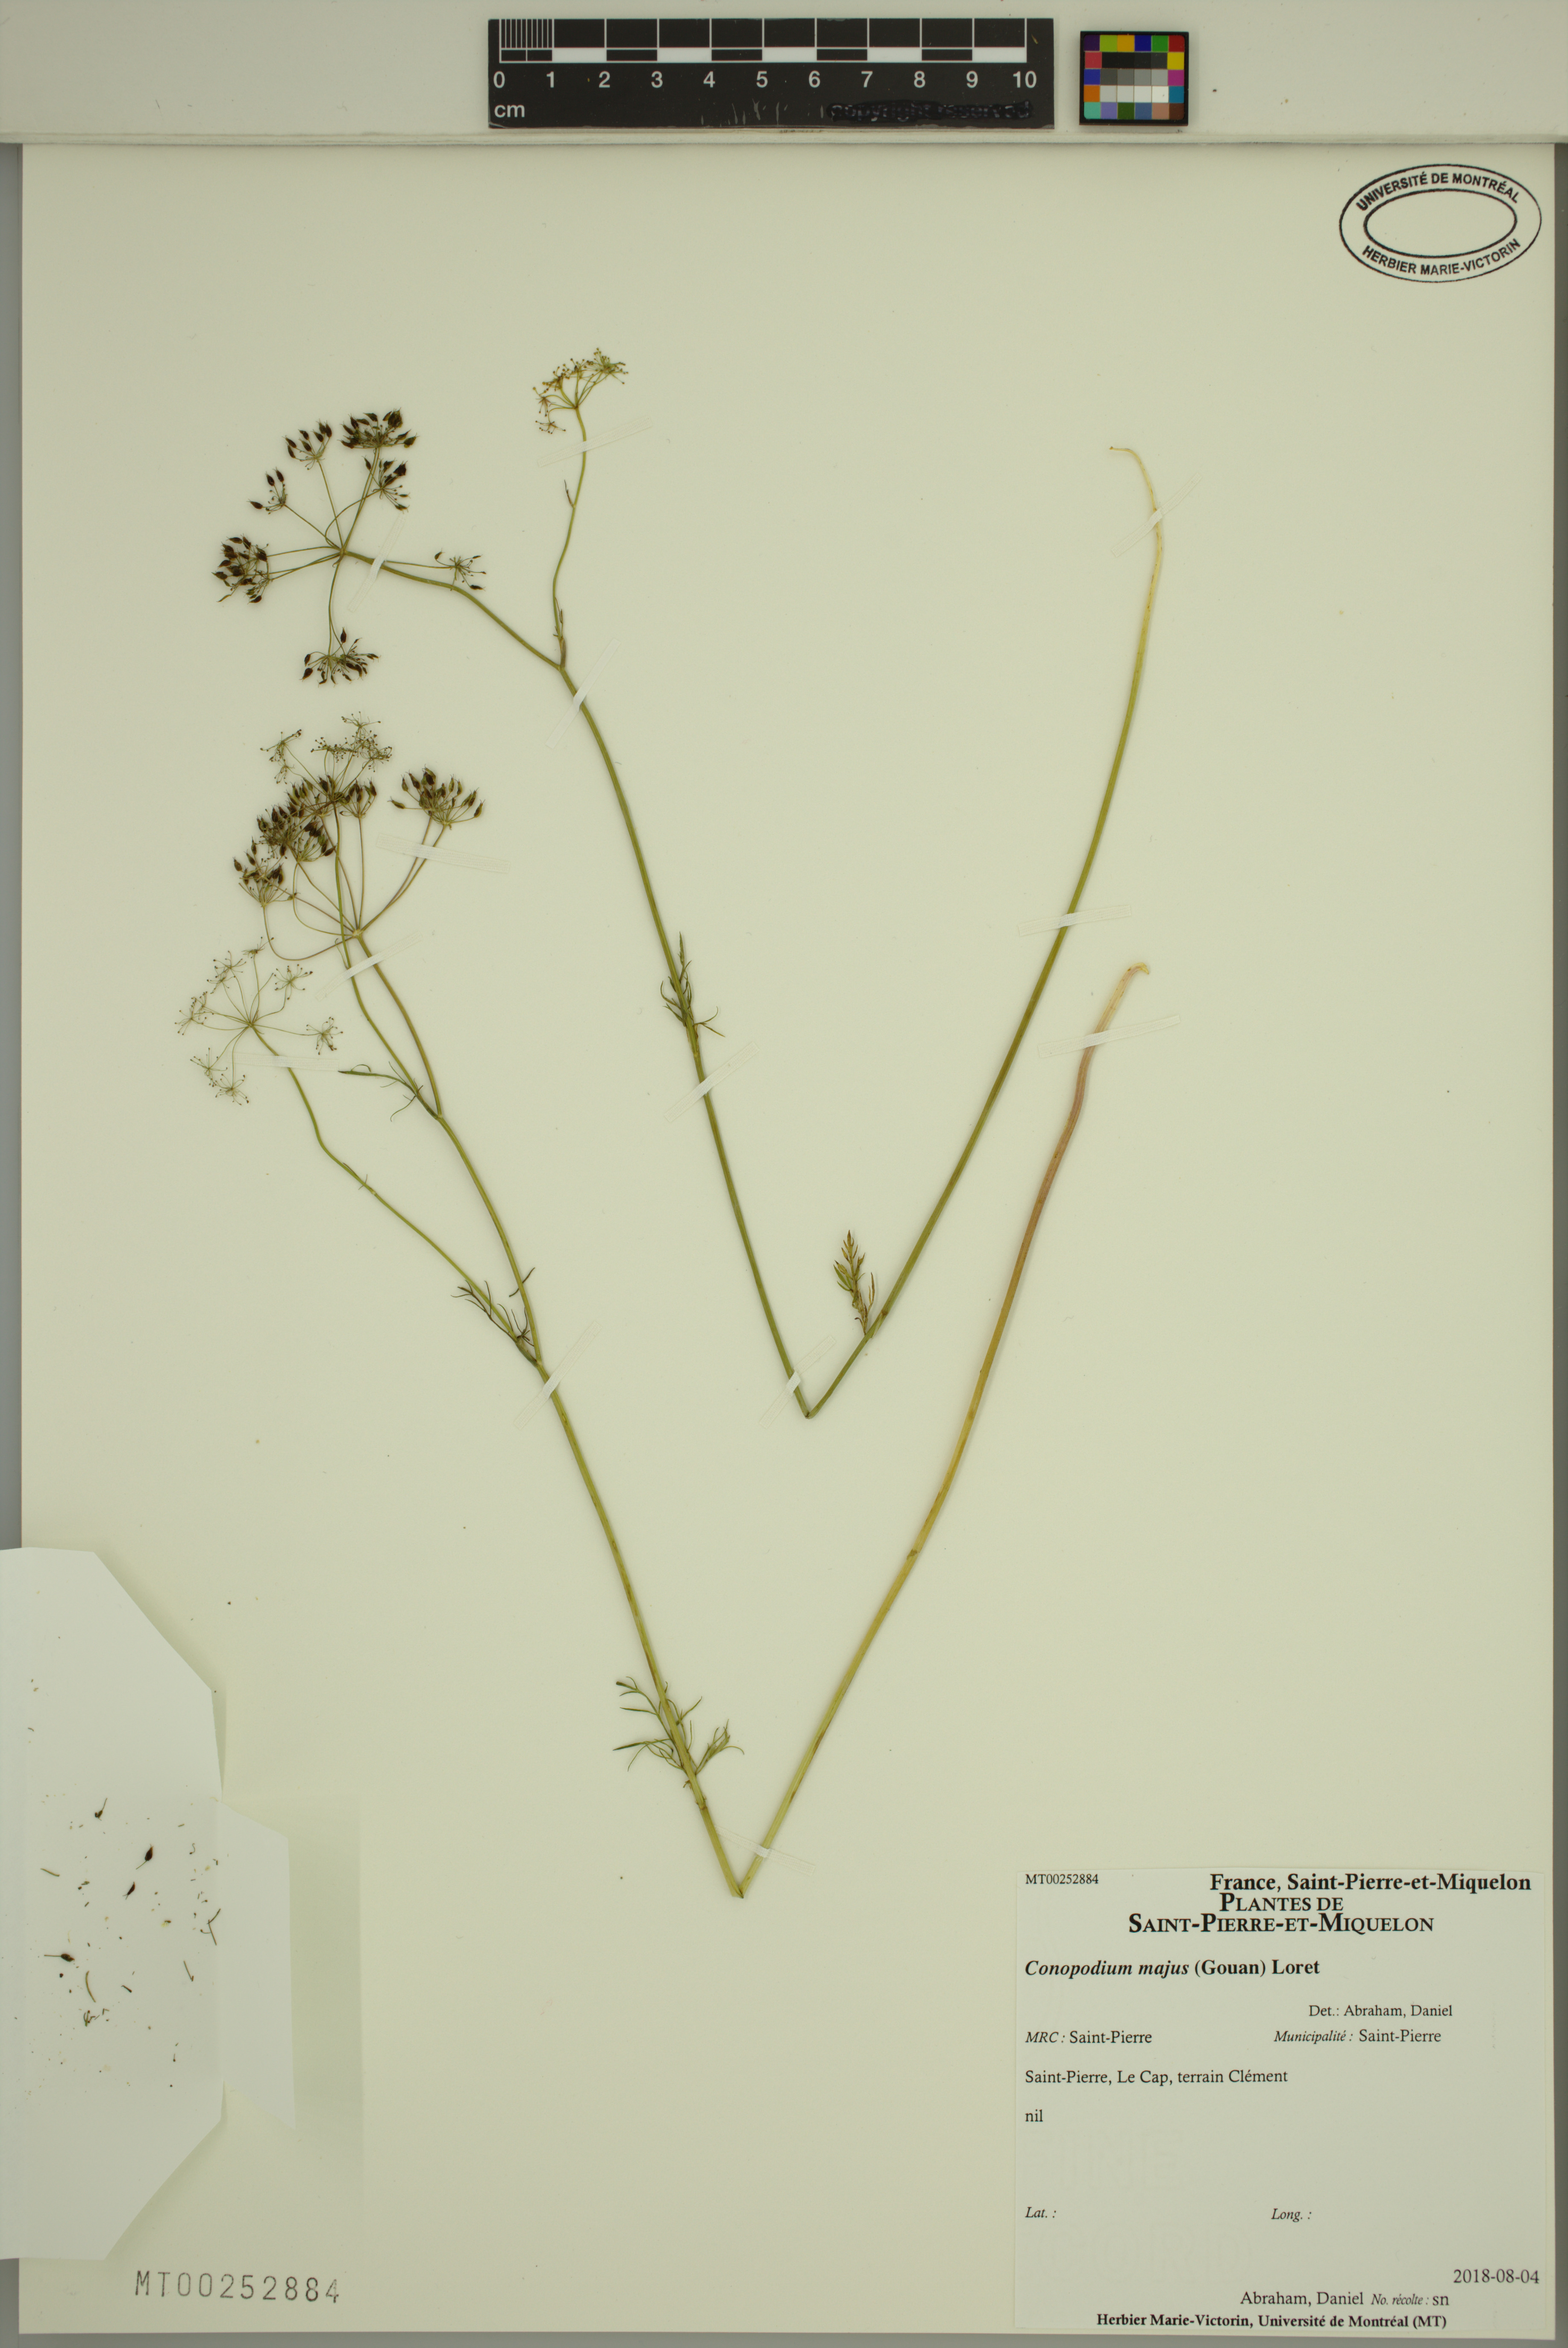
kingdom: Plantae
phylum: Tracheophyta
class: Magnoliopsida
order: Apiales
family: Apiaceae
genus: Conopodium
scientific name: Conopodium majus
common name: Pignut
